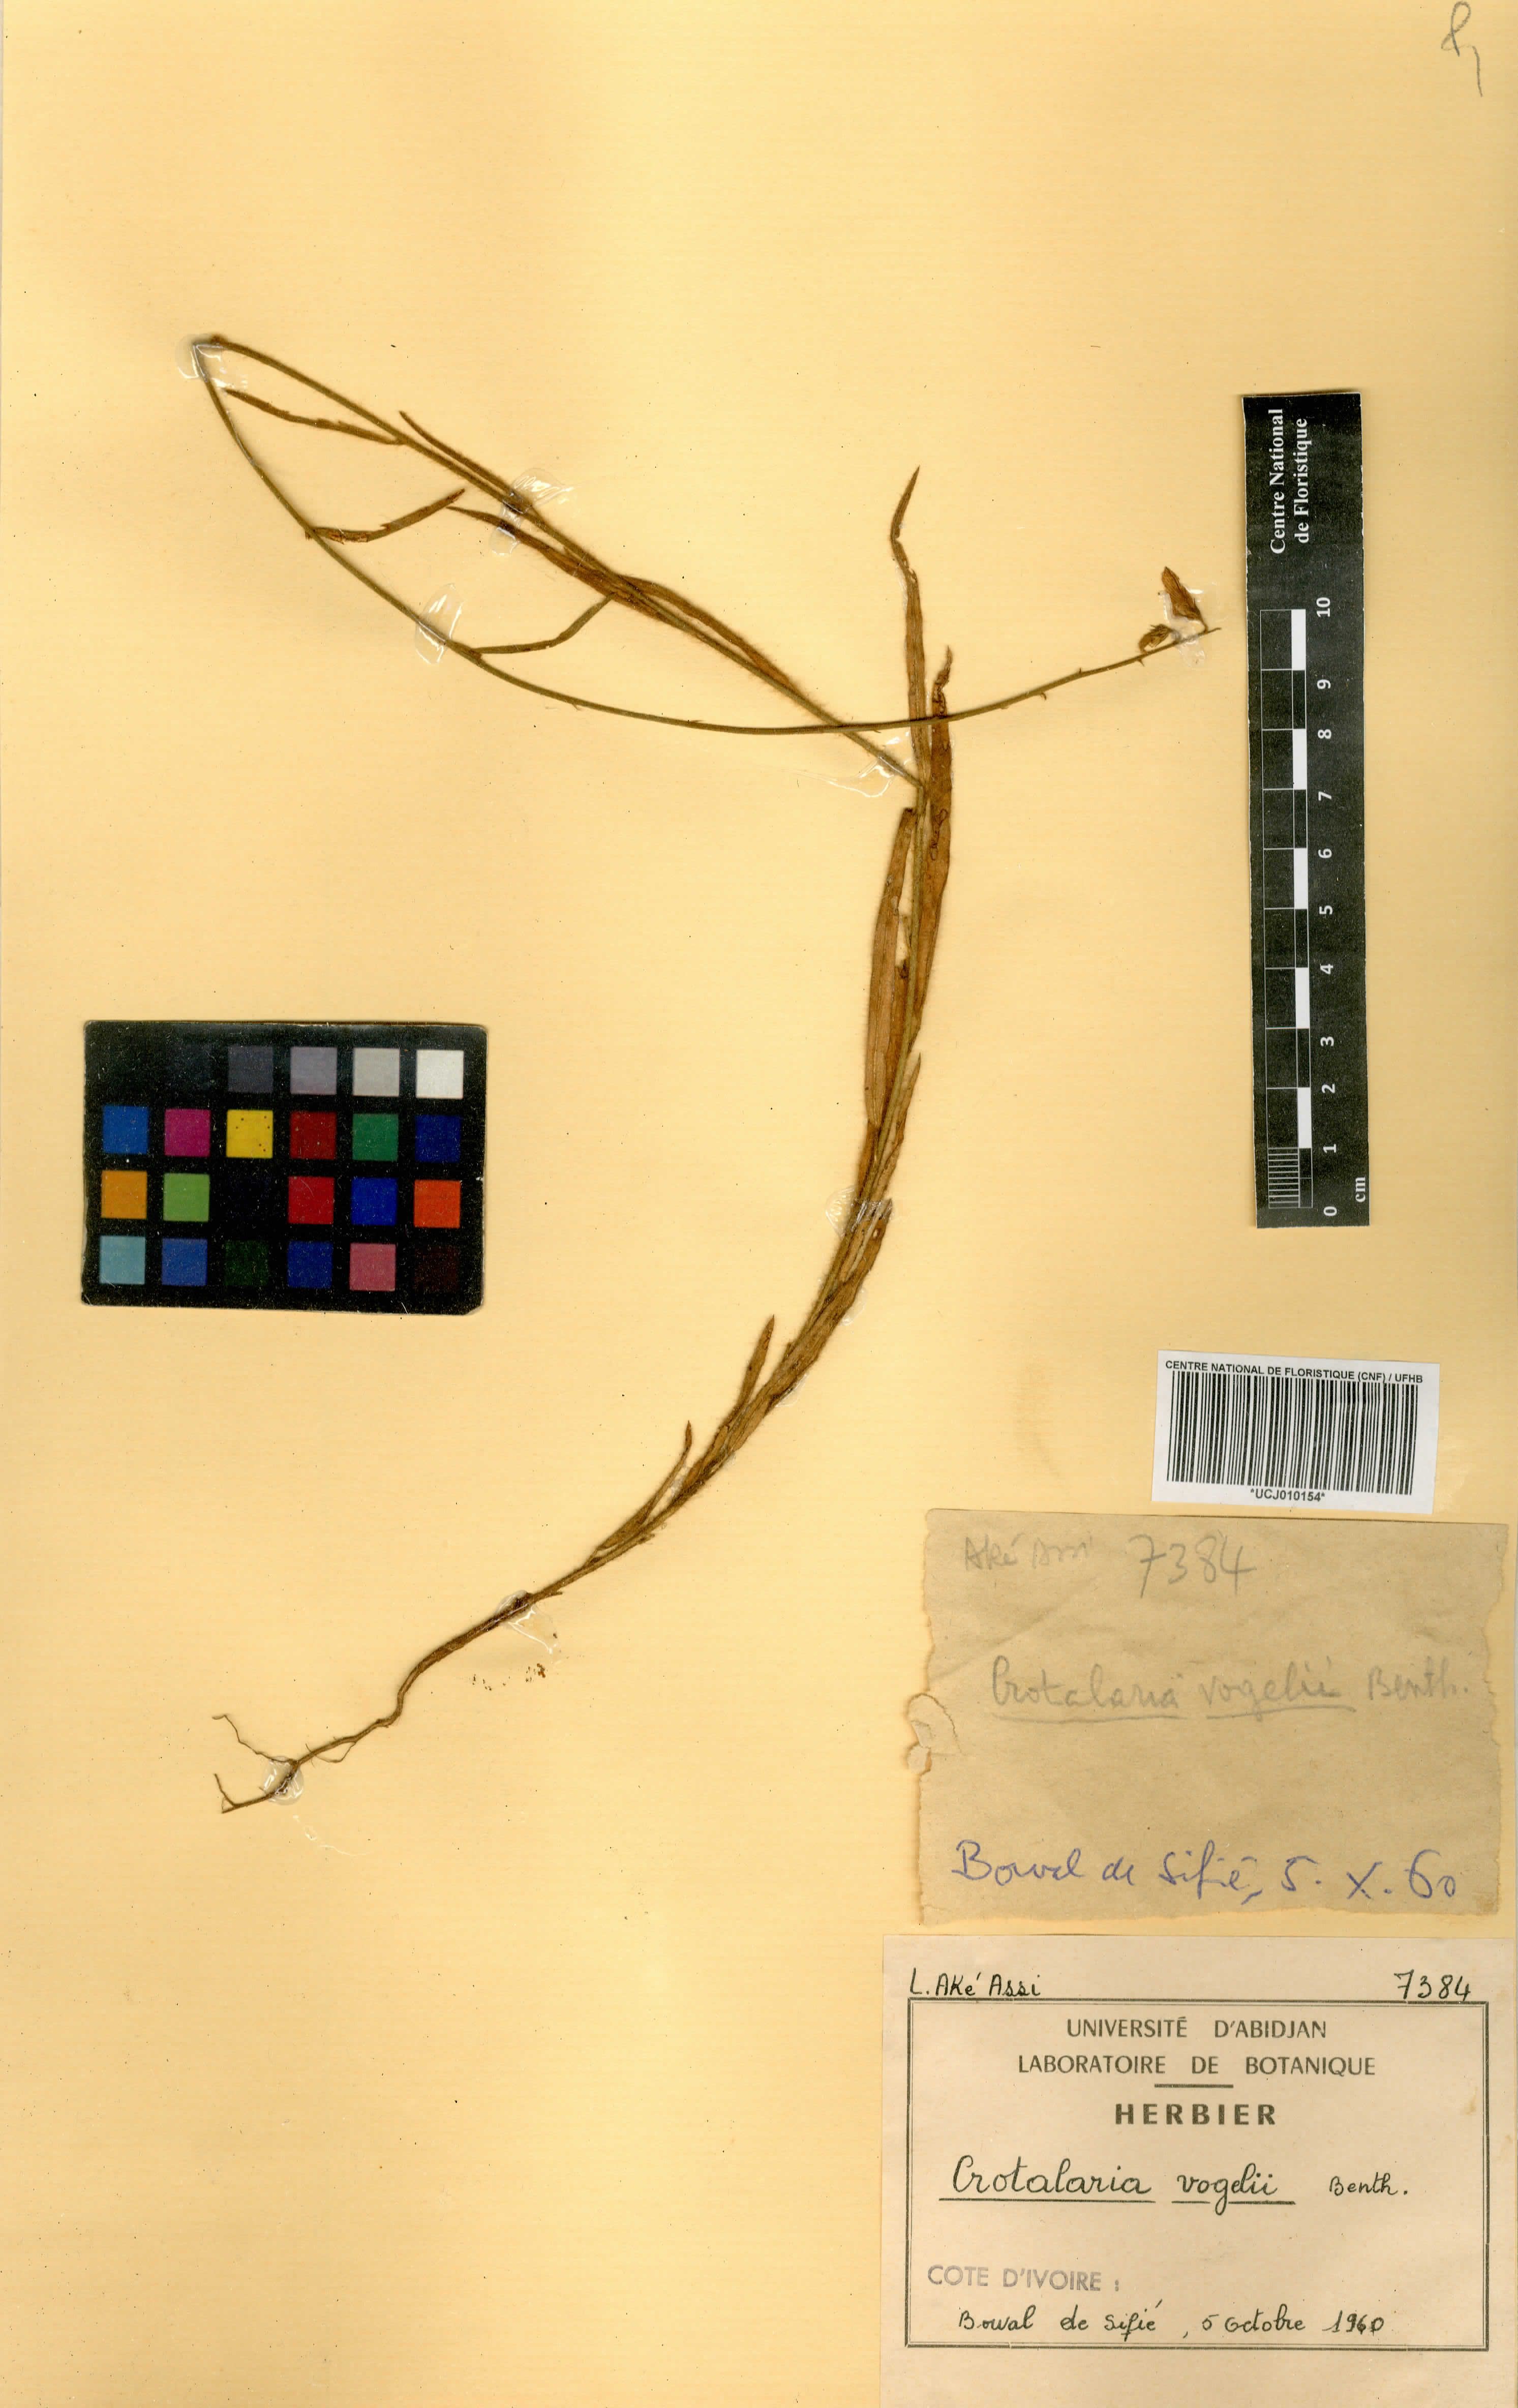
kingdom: Plantae
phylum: Tracheophyta
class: Magnoliopsida
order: Fabales
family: Fabaceae
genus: Crotalaria
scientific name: Crotalaria leprieurii
